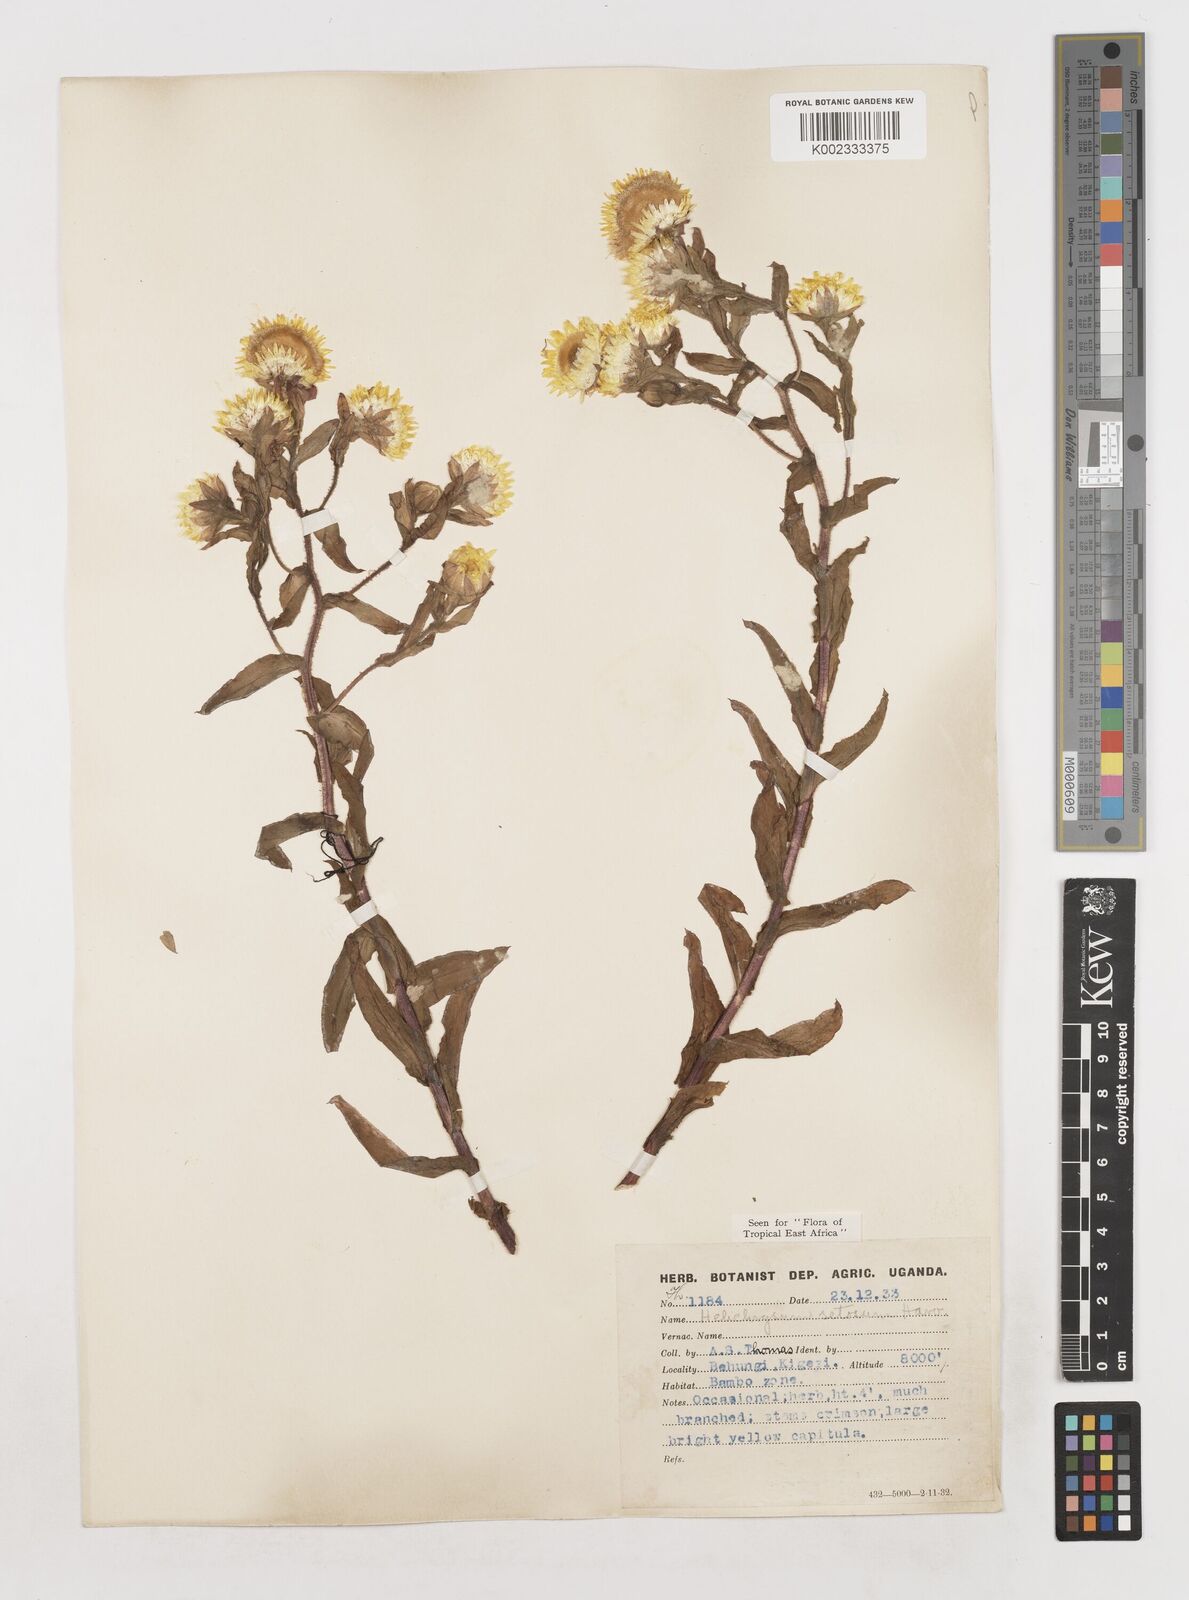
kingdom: Plantae
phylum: Tracheophyta
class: Magnoliopsida
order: Asterales
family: Asteraceae
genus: Helichrysum
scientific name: Helichrysum setosum
